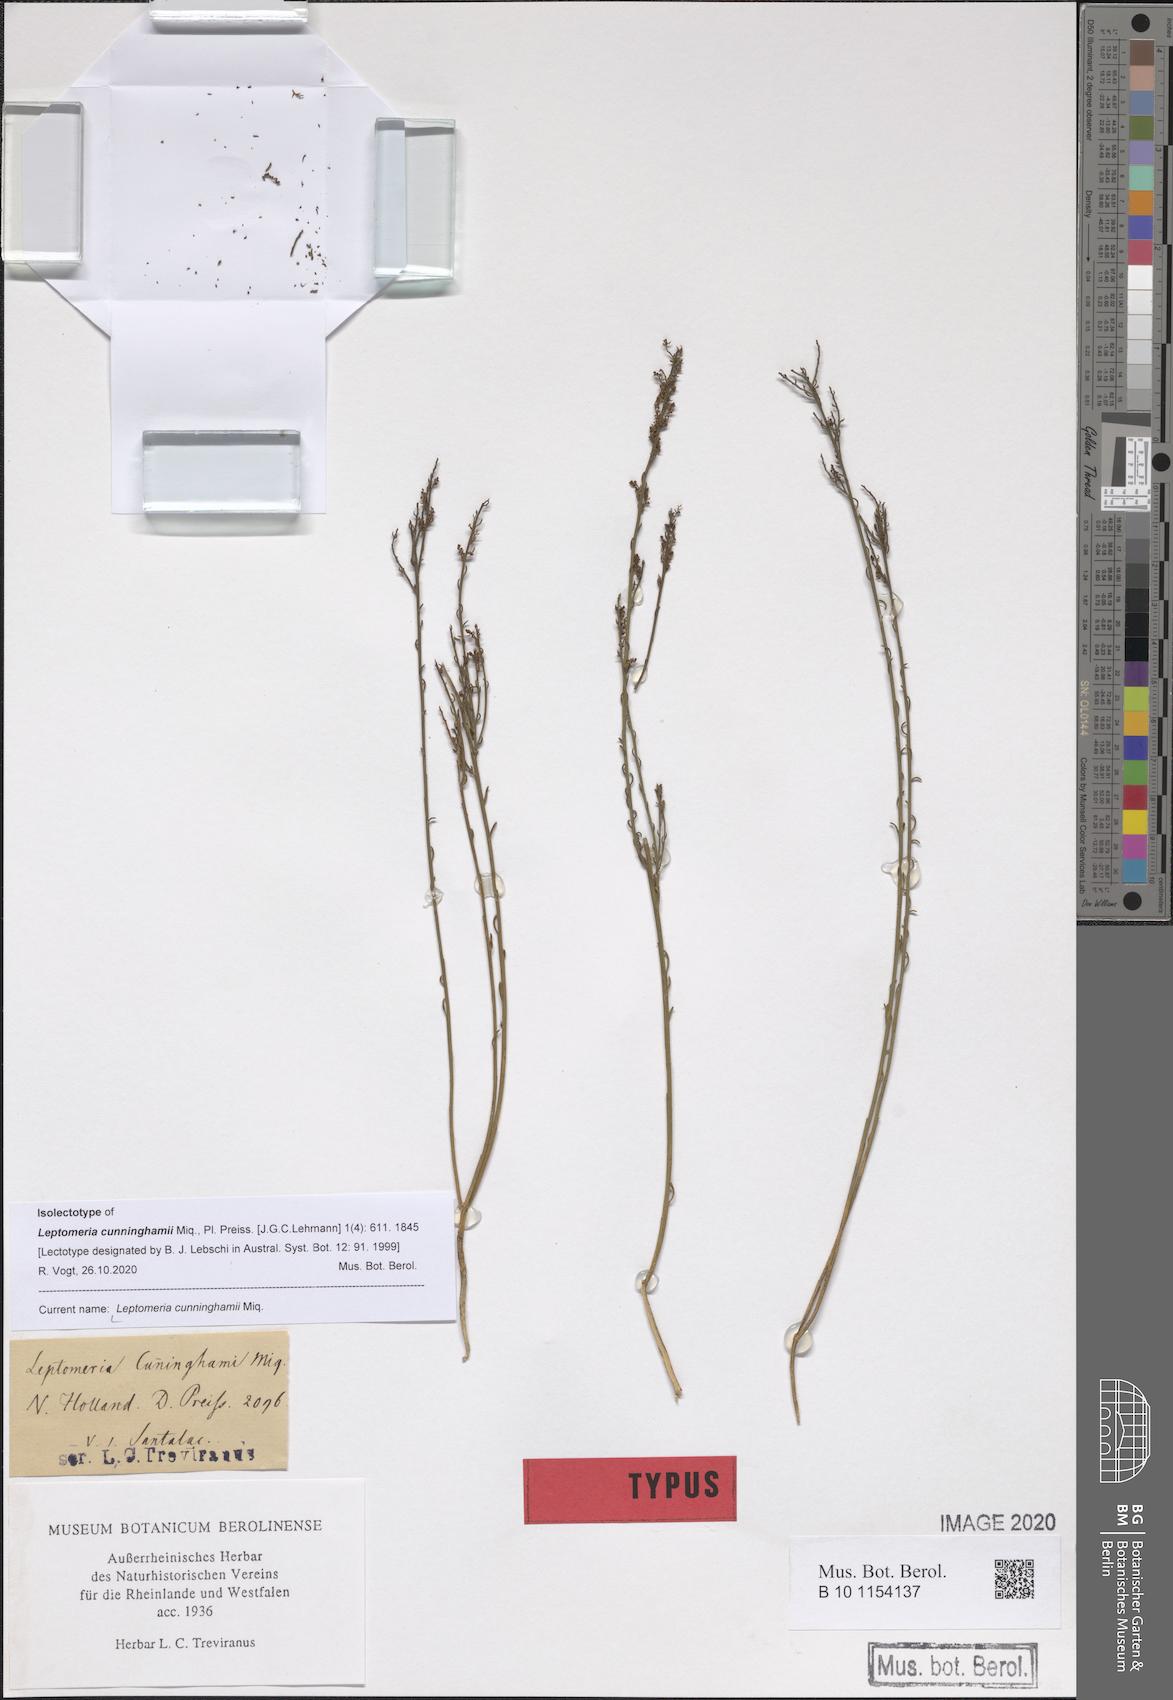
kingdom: Plantae
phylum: Tracheophyta
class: Magnoliopsida
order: Santalales
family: Amphorogynaceae
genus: Leptomeria
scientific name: Leptomeria cunninghamii
